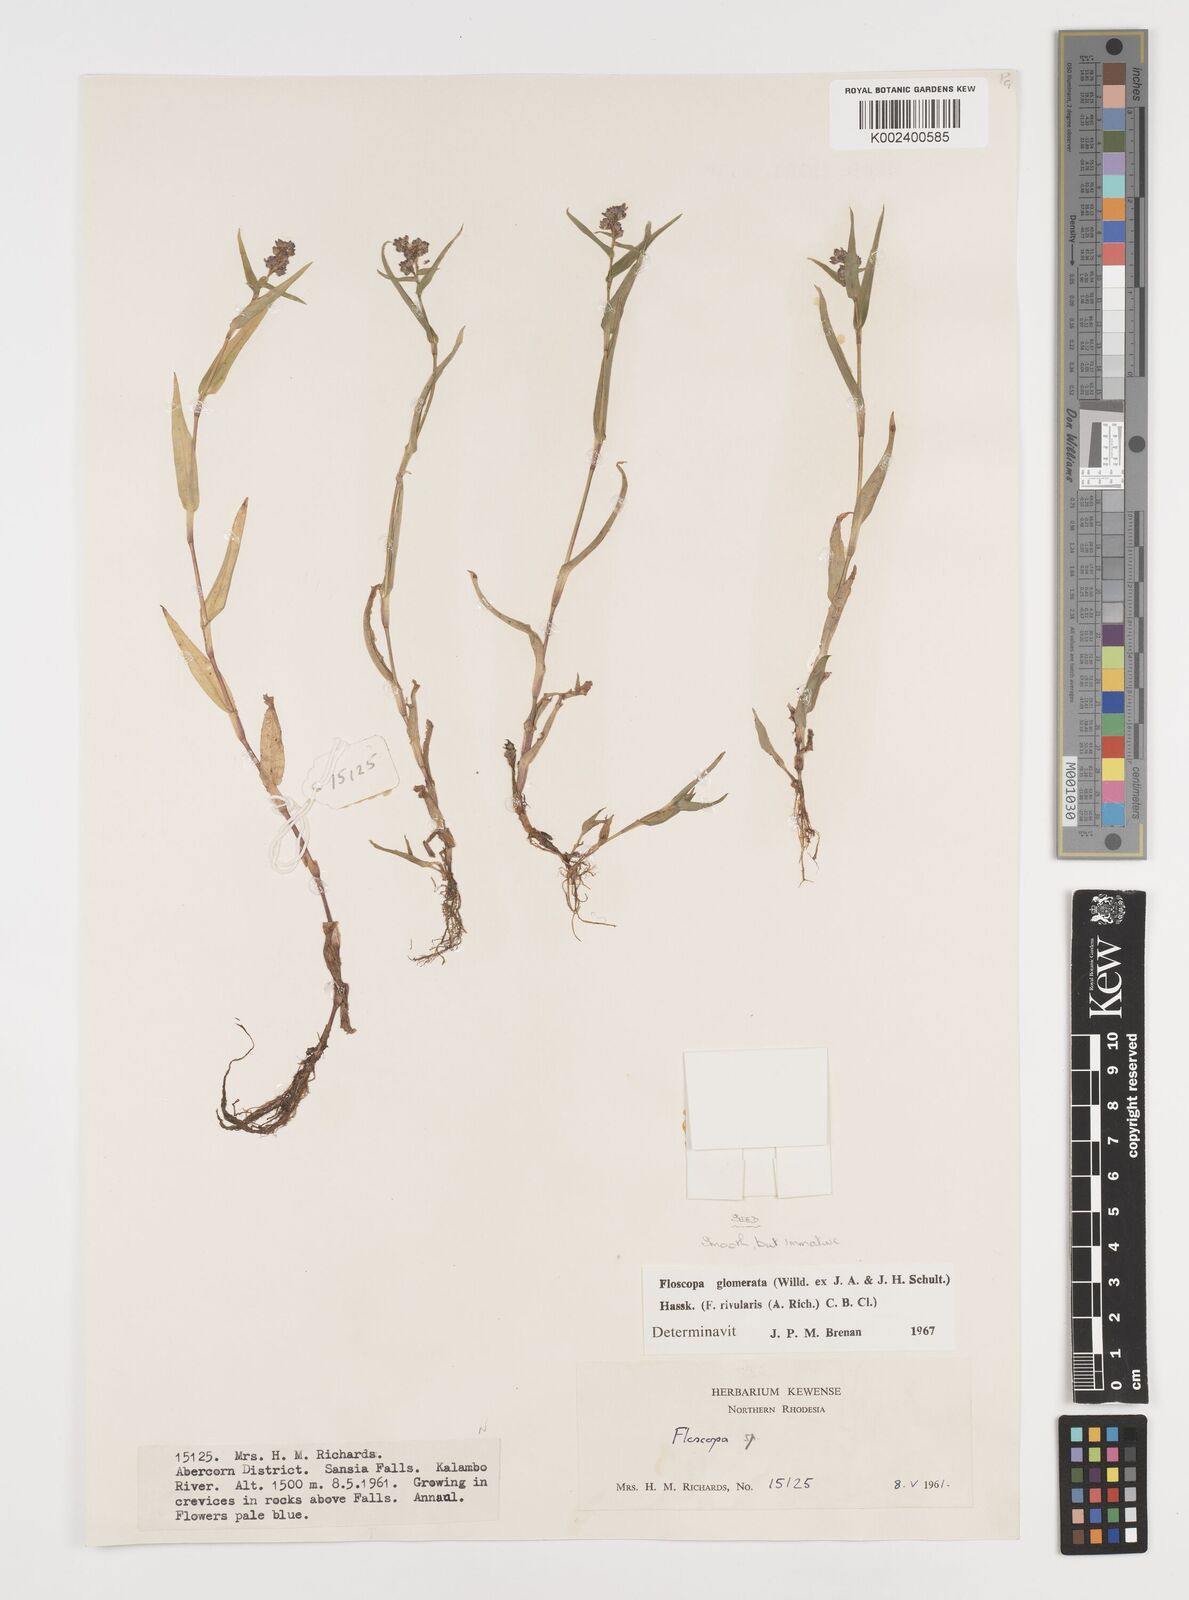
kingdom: Plantae
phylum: Tracheophyta
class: Liliopsida
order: Commelinales
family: Commelinaceae
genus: Floscopa
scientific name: Floscopa glomerata
